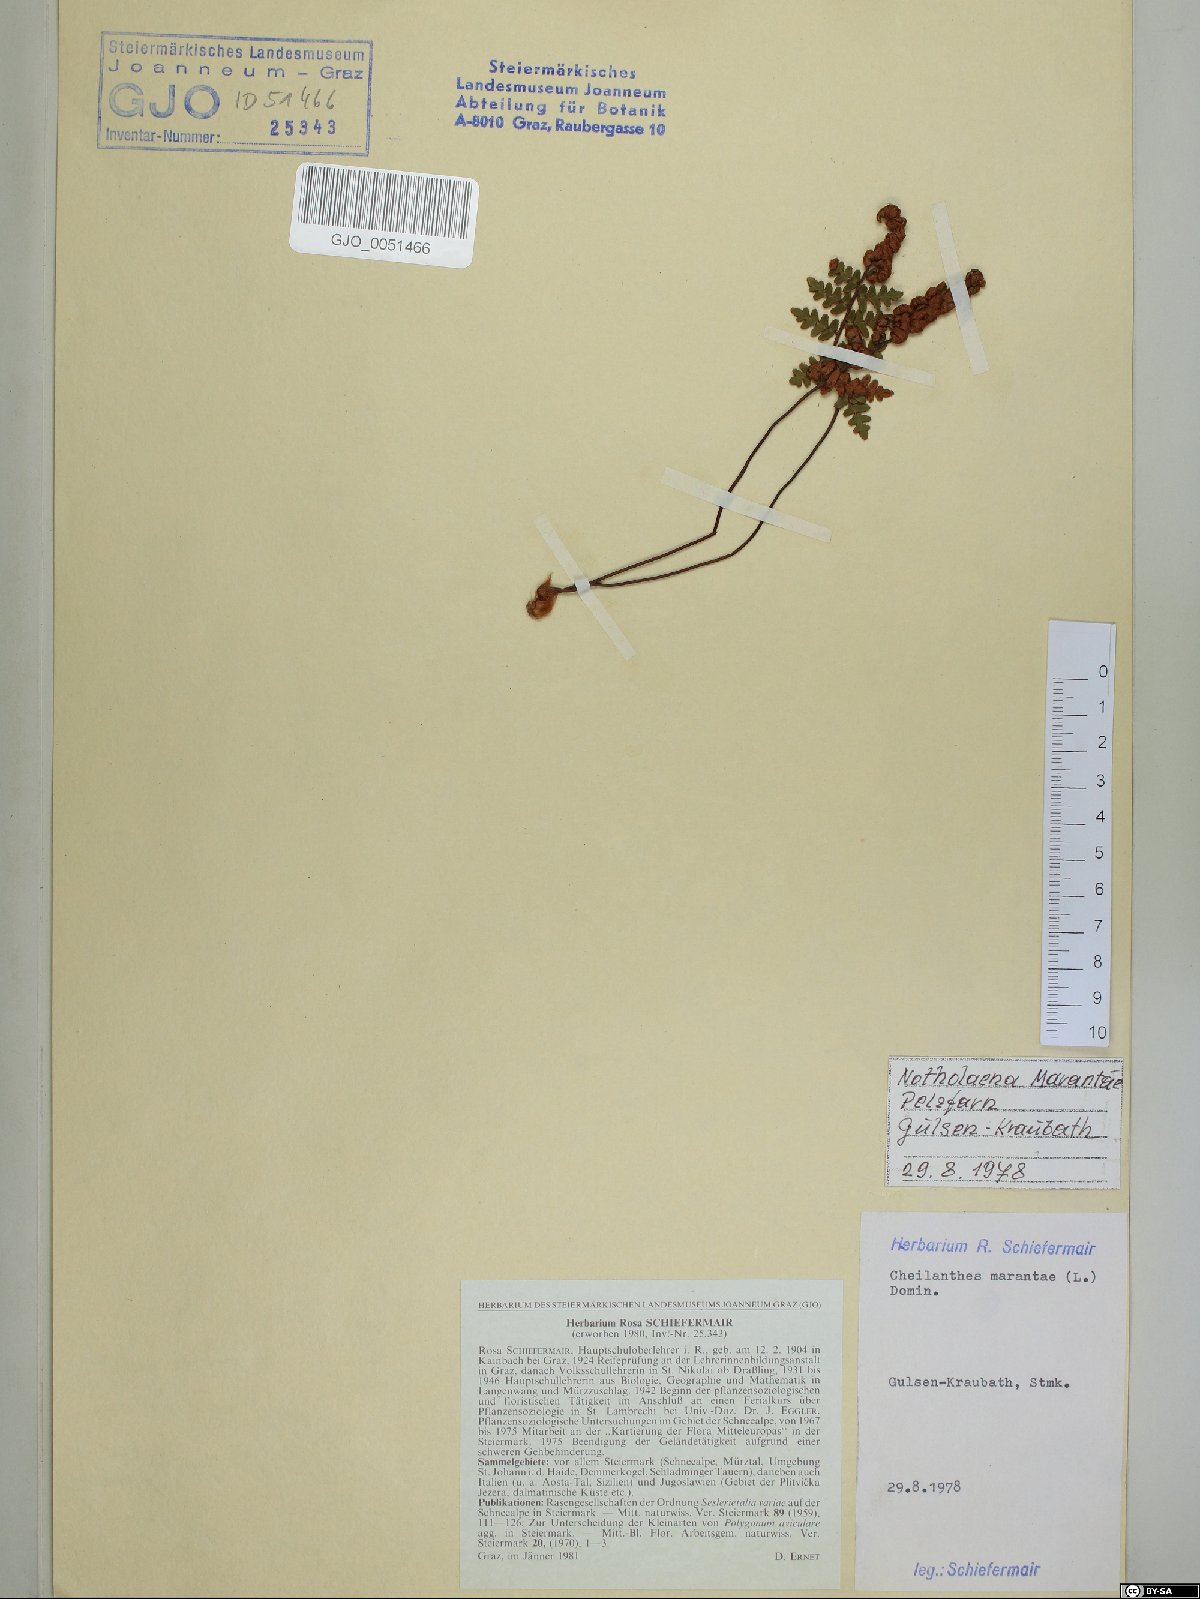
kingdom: Plantae
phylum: Tracheophyta
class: Polypodiopsida
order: Polypodiales
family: Pteridaceae
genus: Paragymnopteris
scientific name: Paragymnopteris marantae
